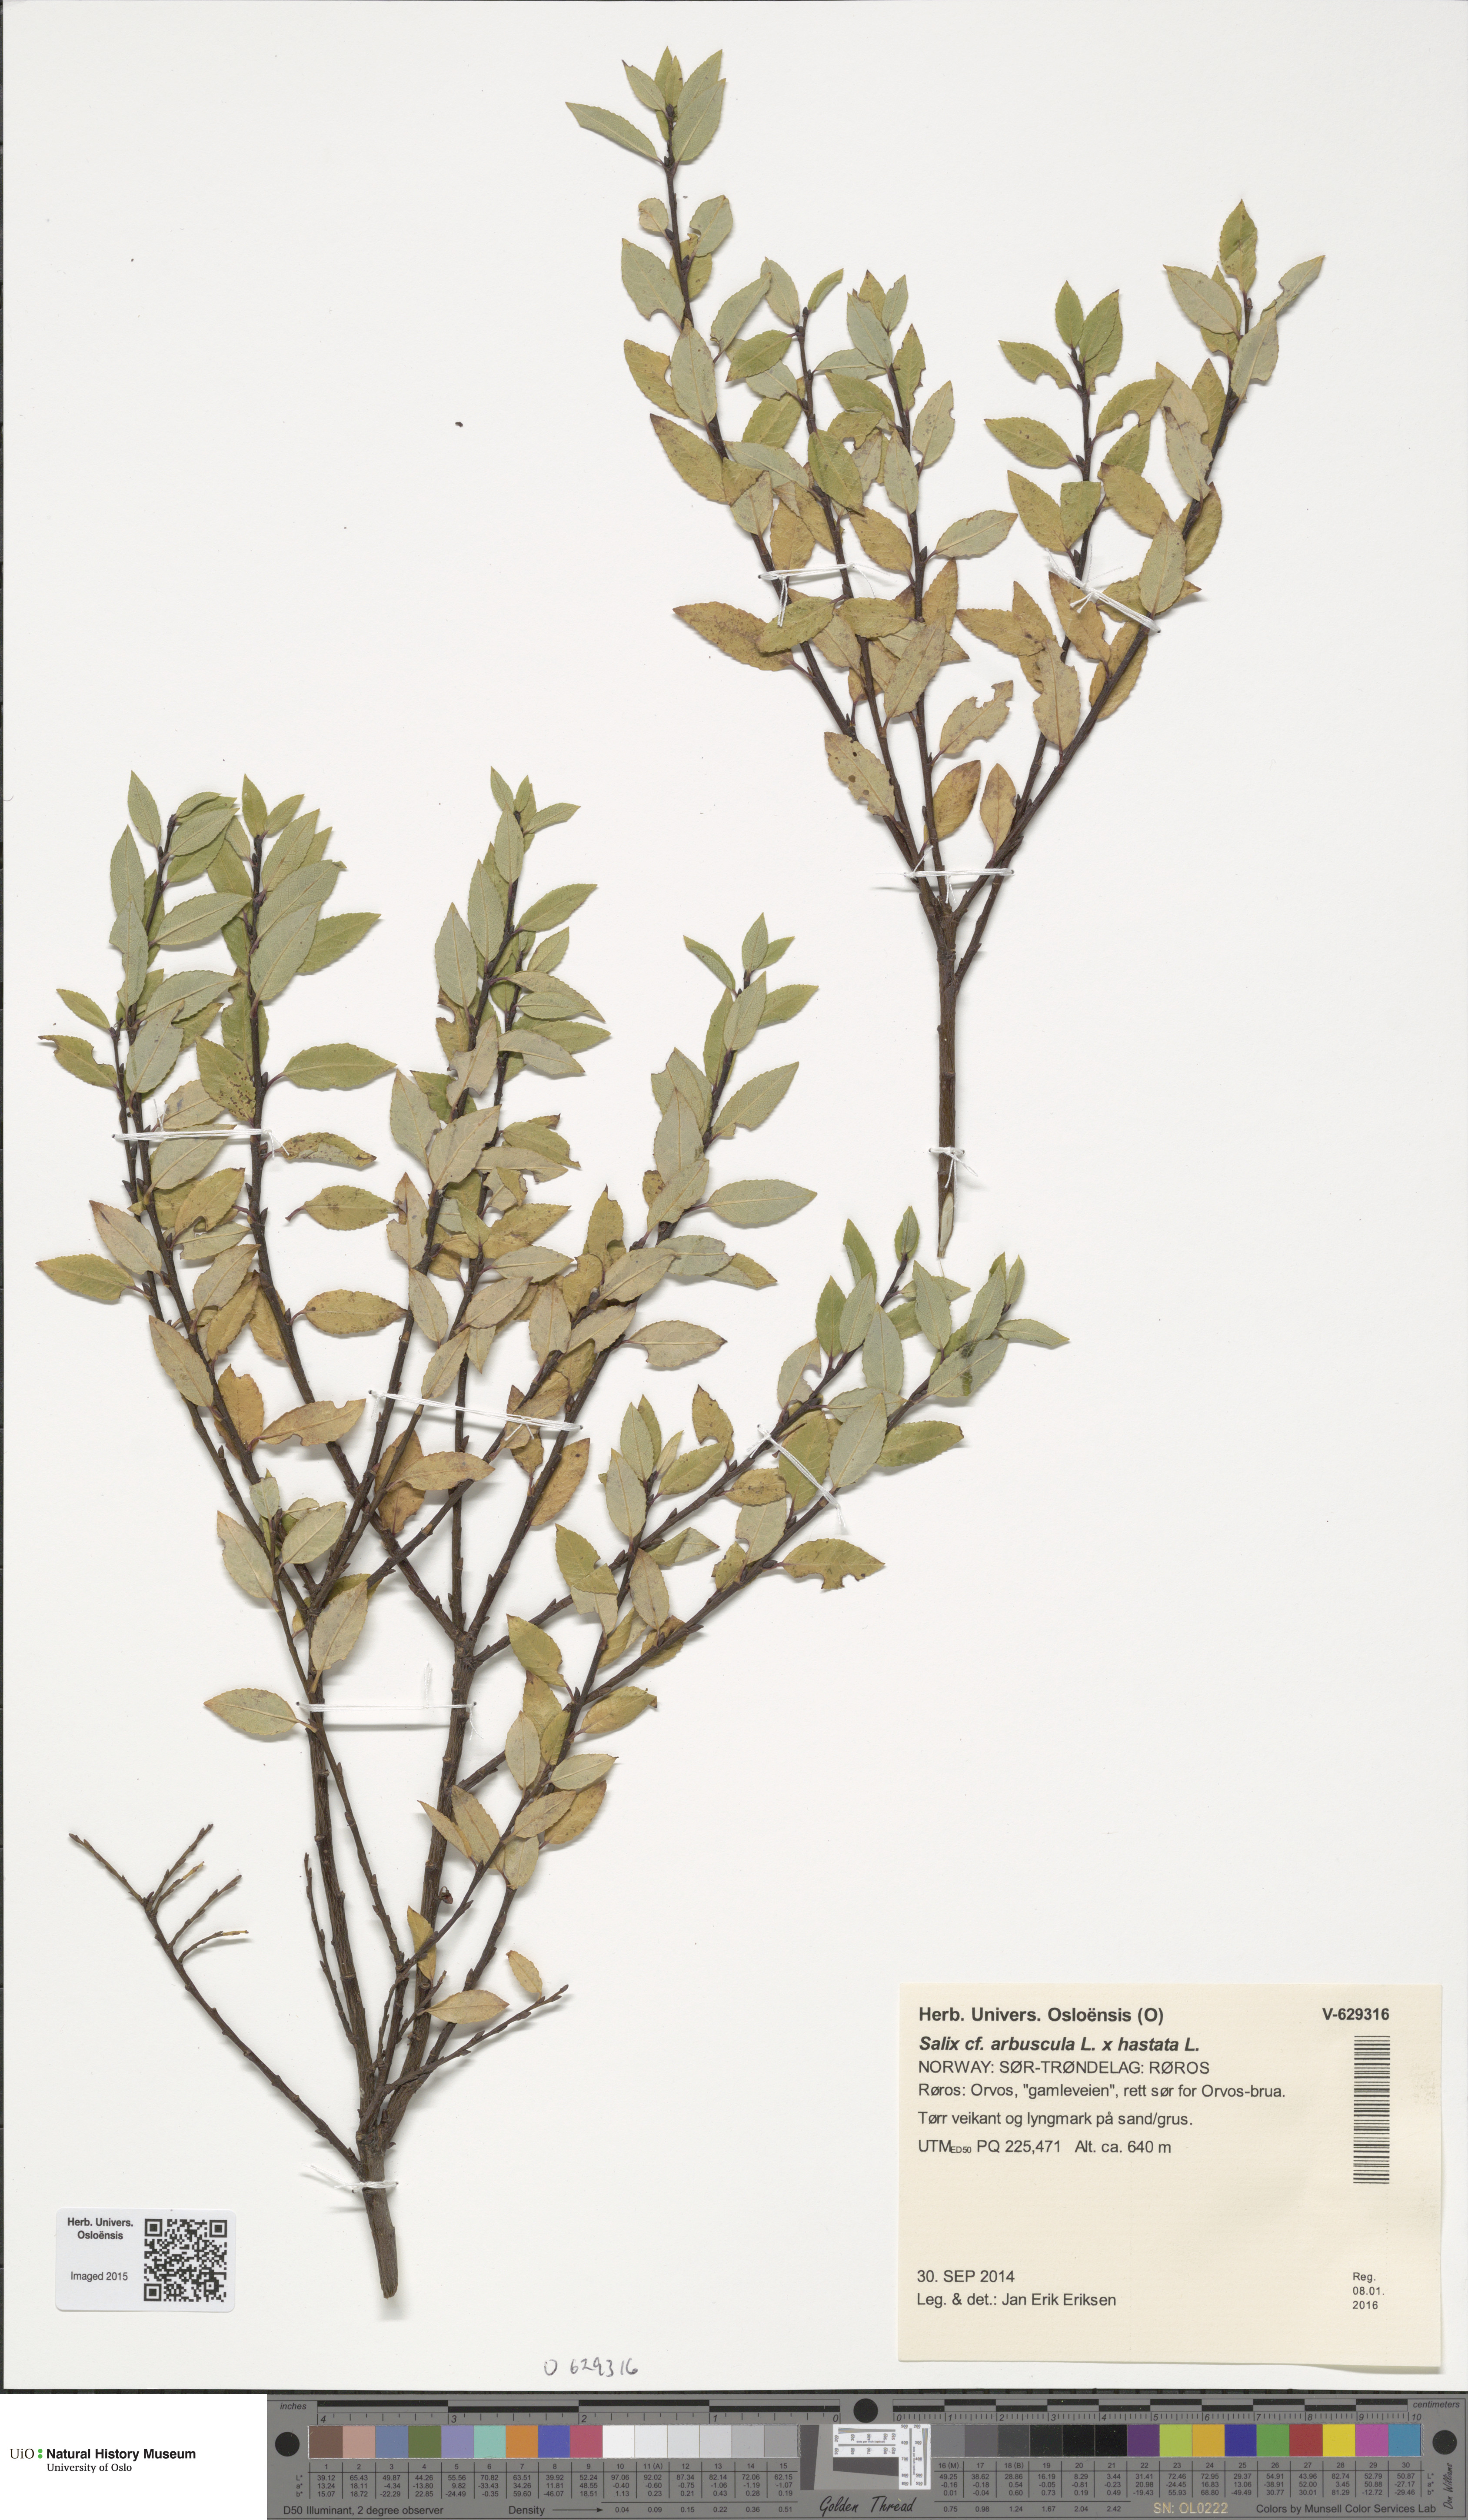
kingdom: Plantae
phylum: Tracheophyta
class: Magnoliopsida
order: Malpighiales
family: Salicaceae
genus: Salix
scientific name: Salix
